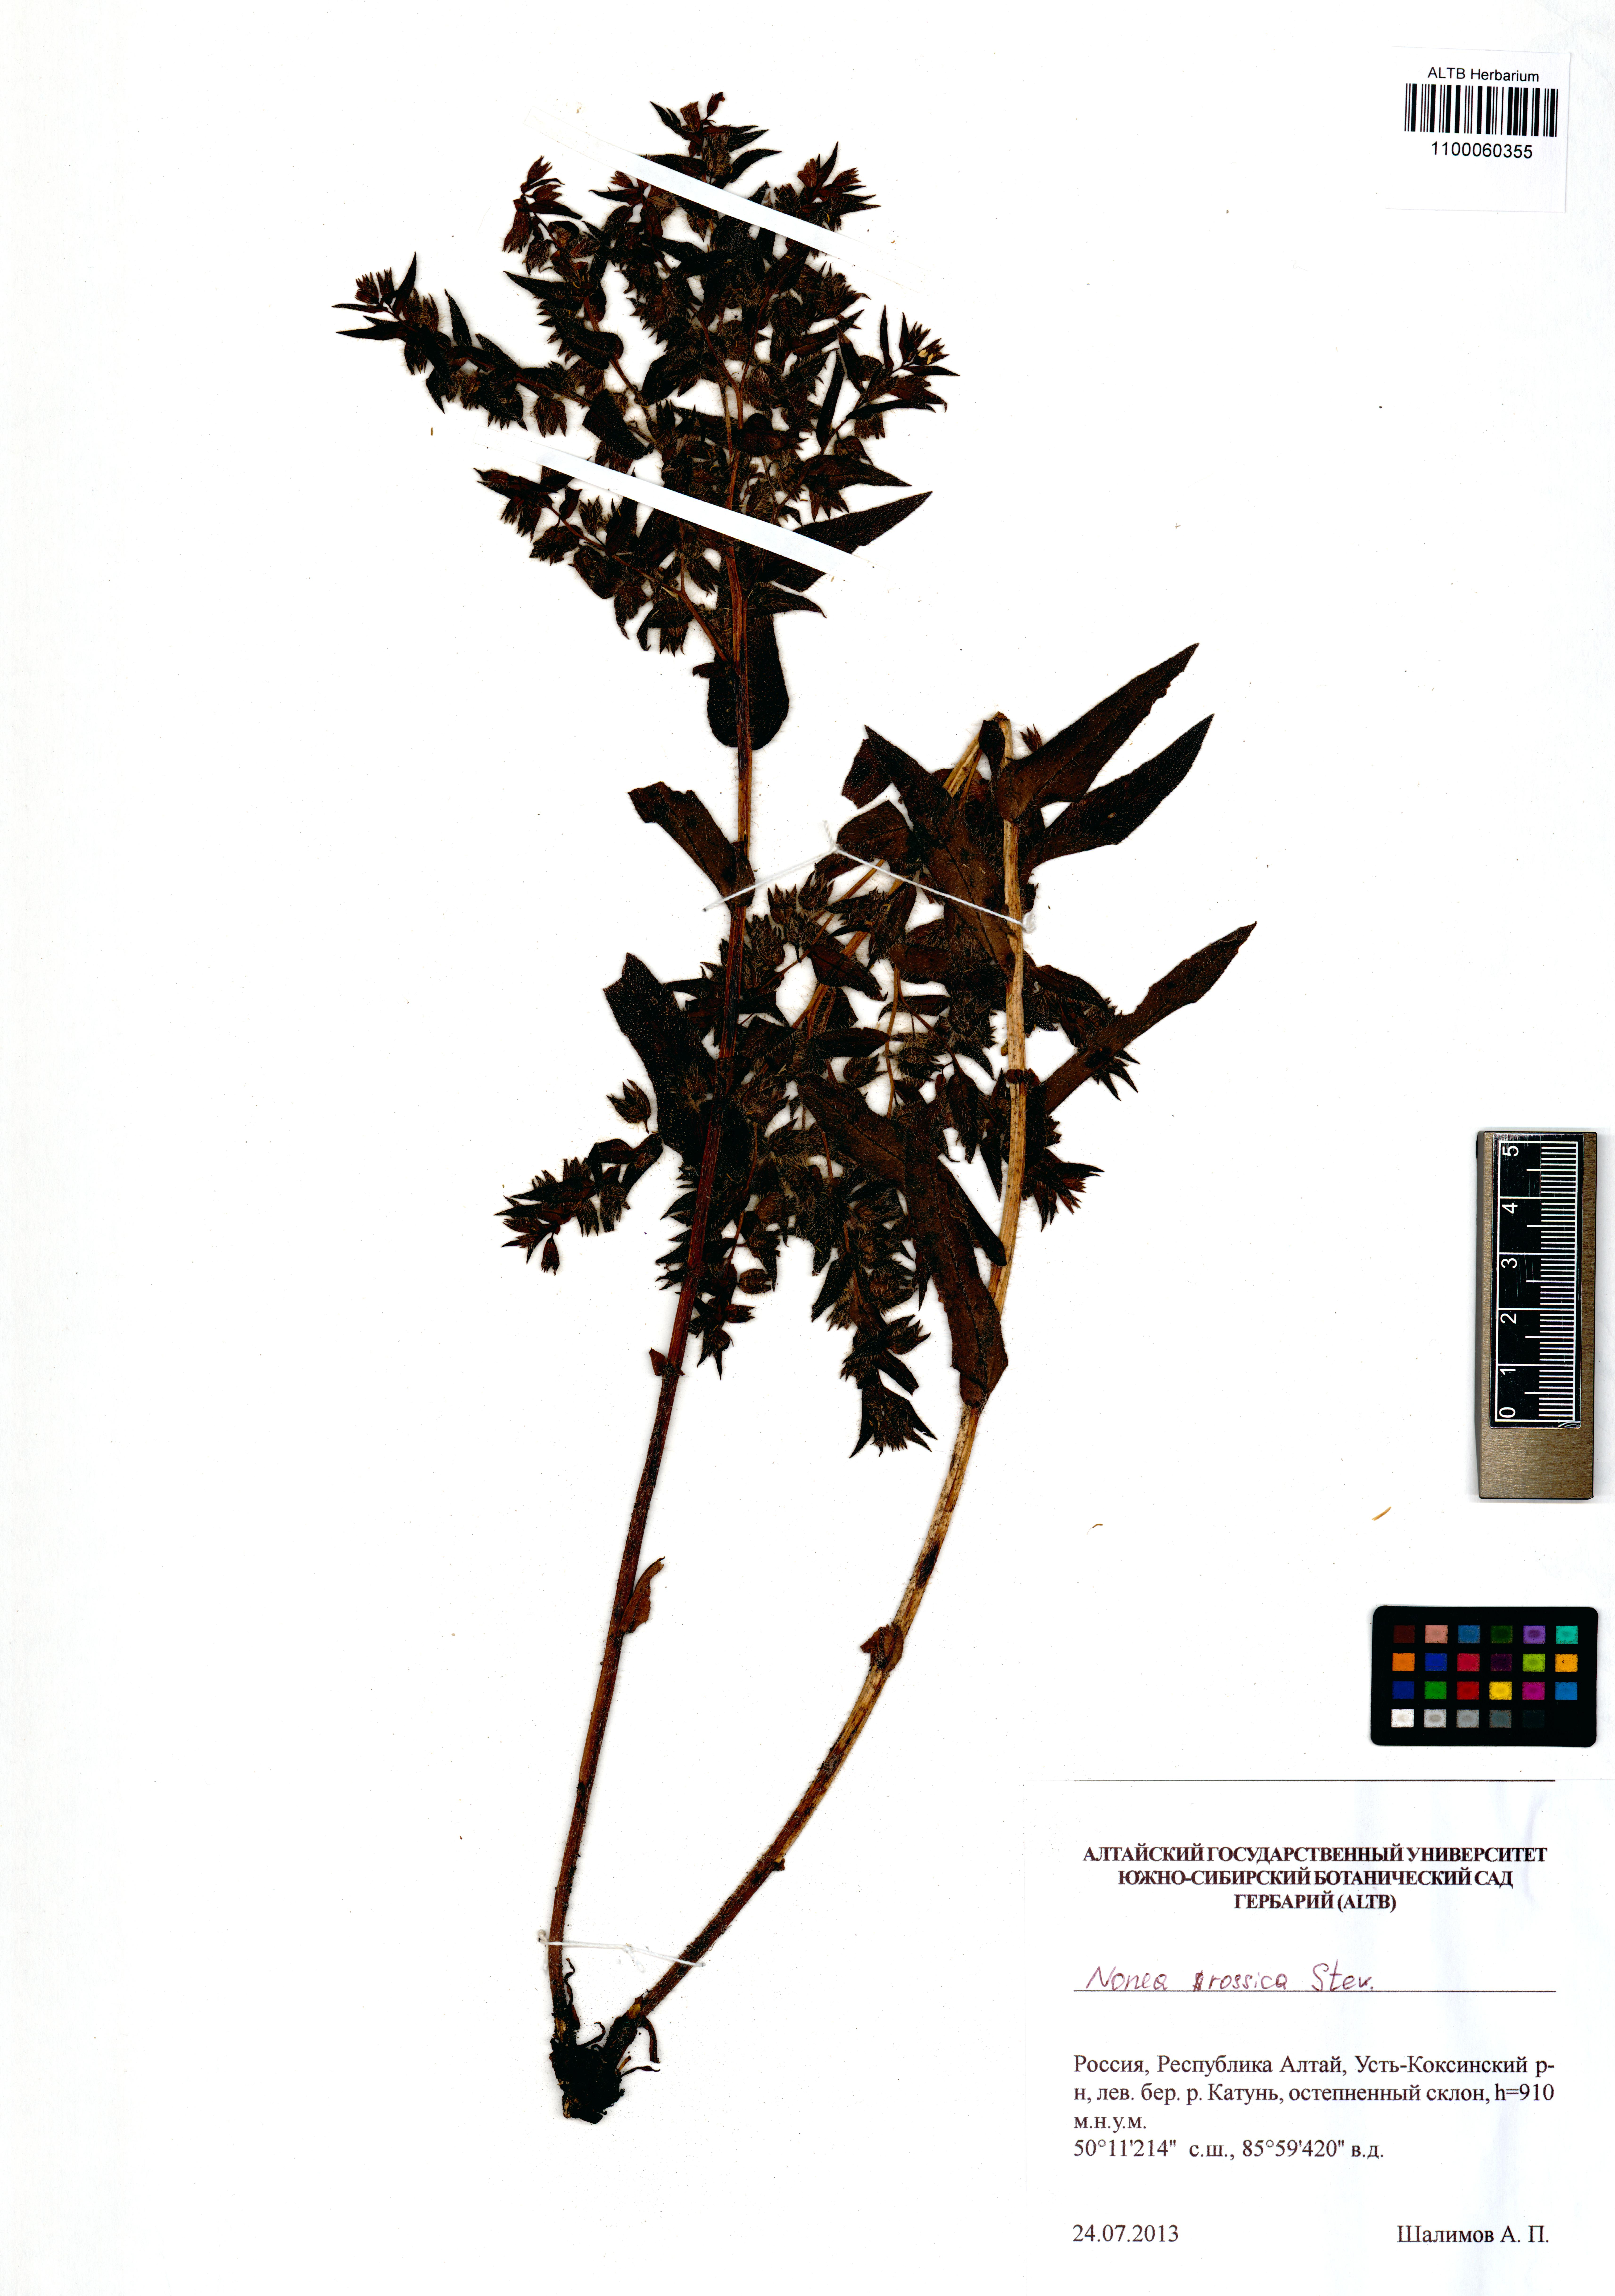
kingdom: Plantae
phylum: Tracheophyta
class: Magnoliopsida
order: Boraginales
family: Boraginaceae
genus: Nonea
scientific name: Nonea pulla
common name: Brown nonea
